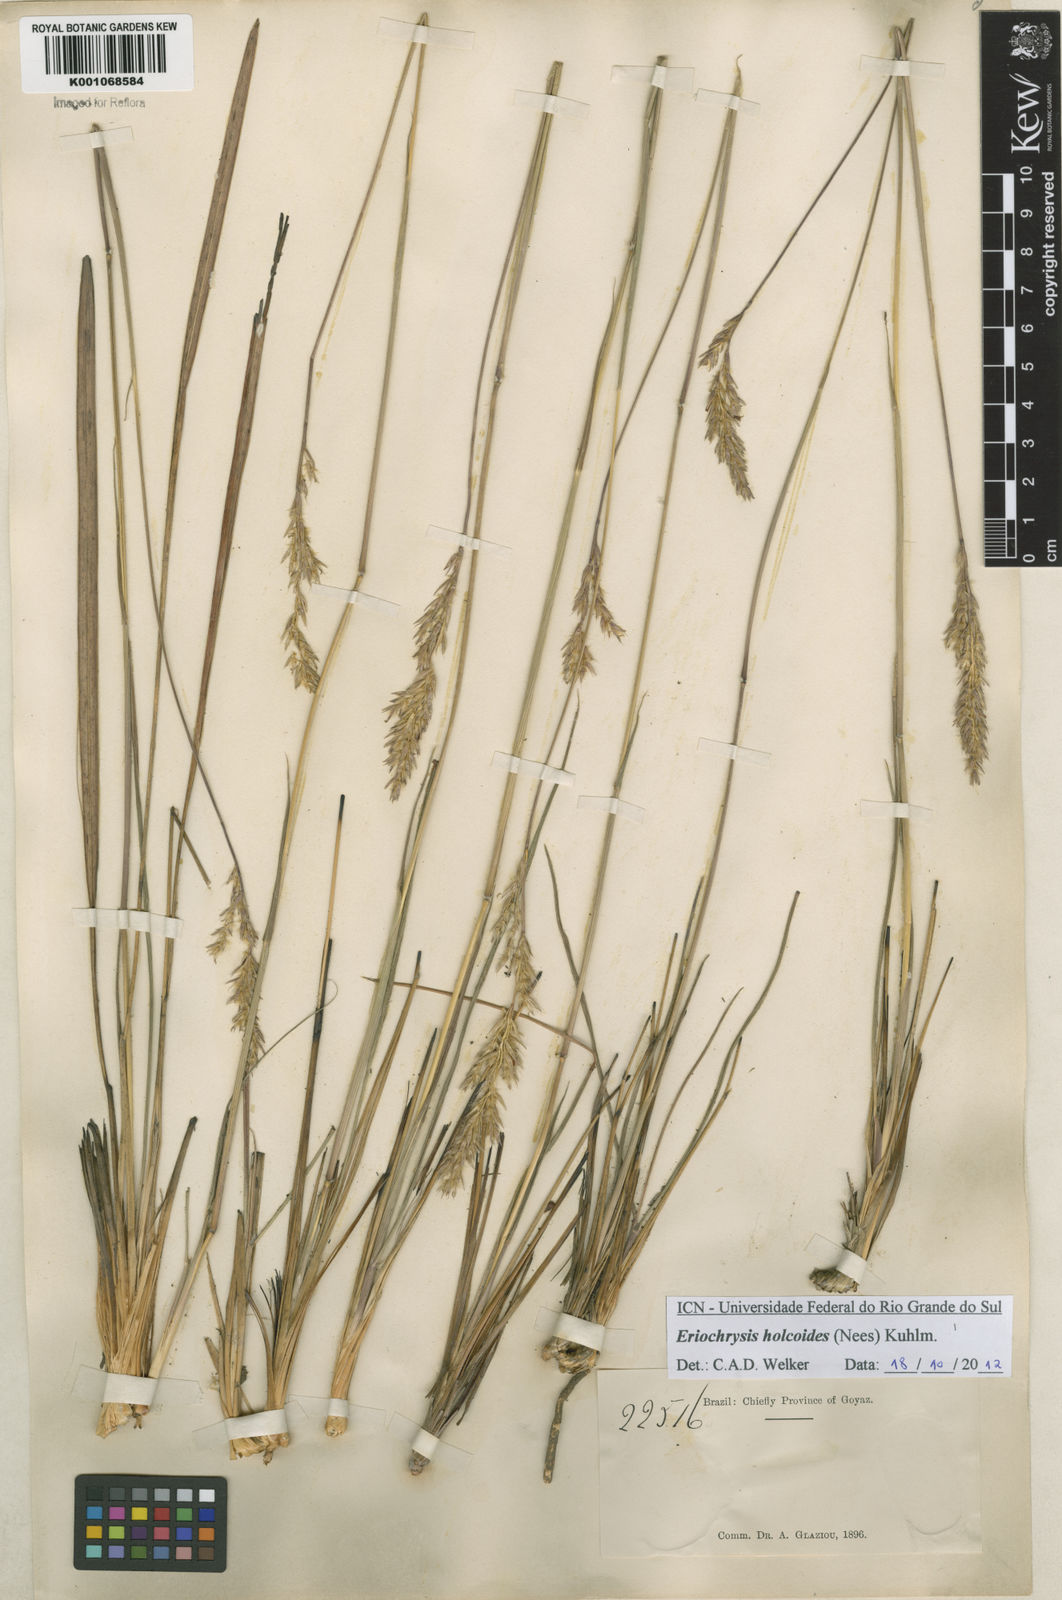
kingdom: Plantae
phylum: Tracheophyta
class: Liliopsida
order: Poales
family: Poaceae
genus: Eriochrysis
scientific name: Eriochrysis holcoides
